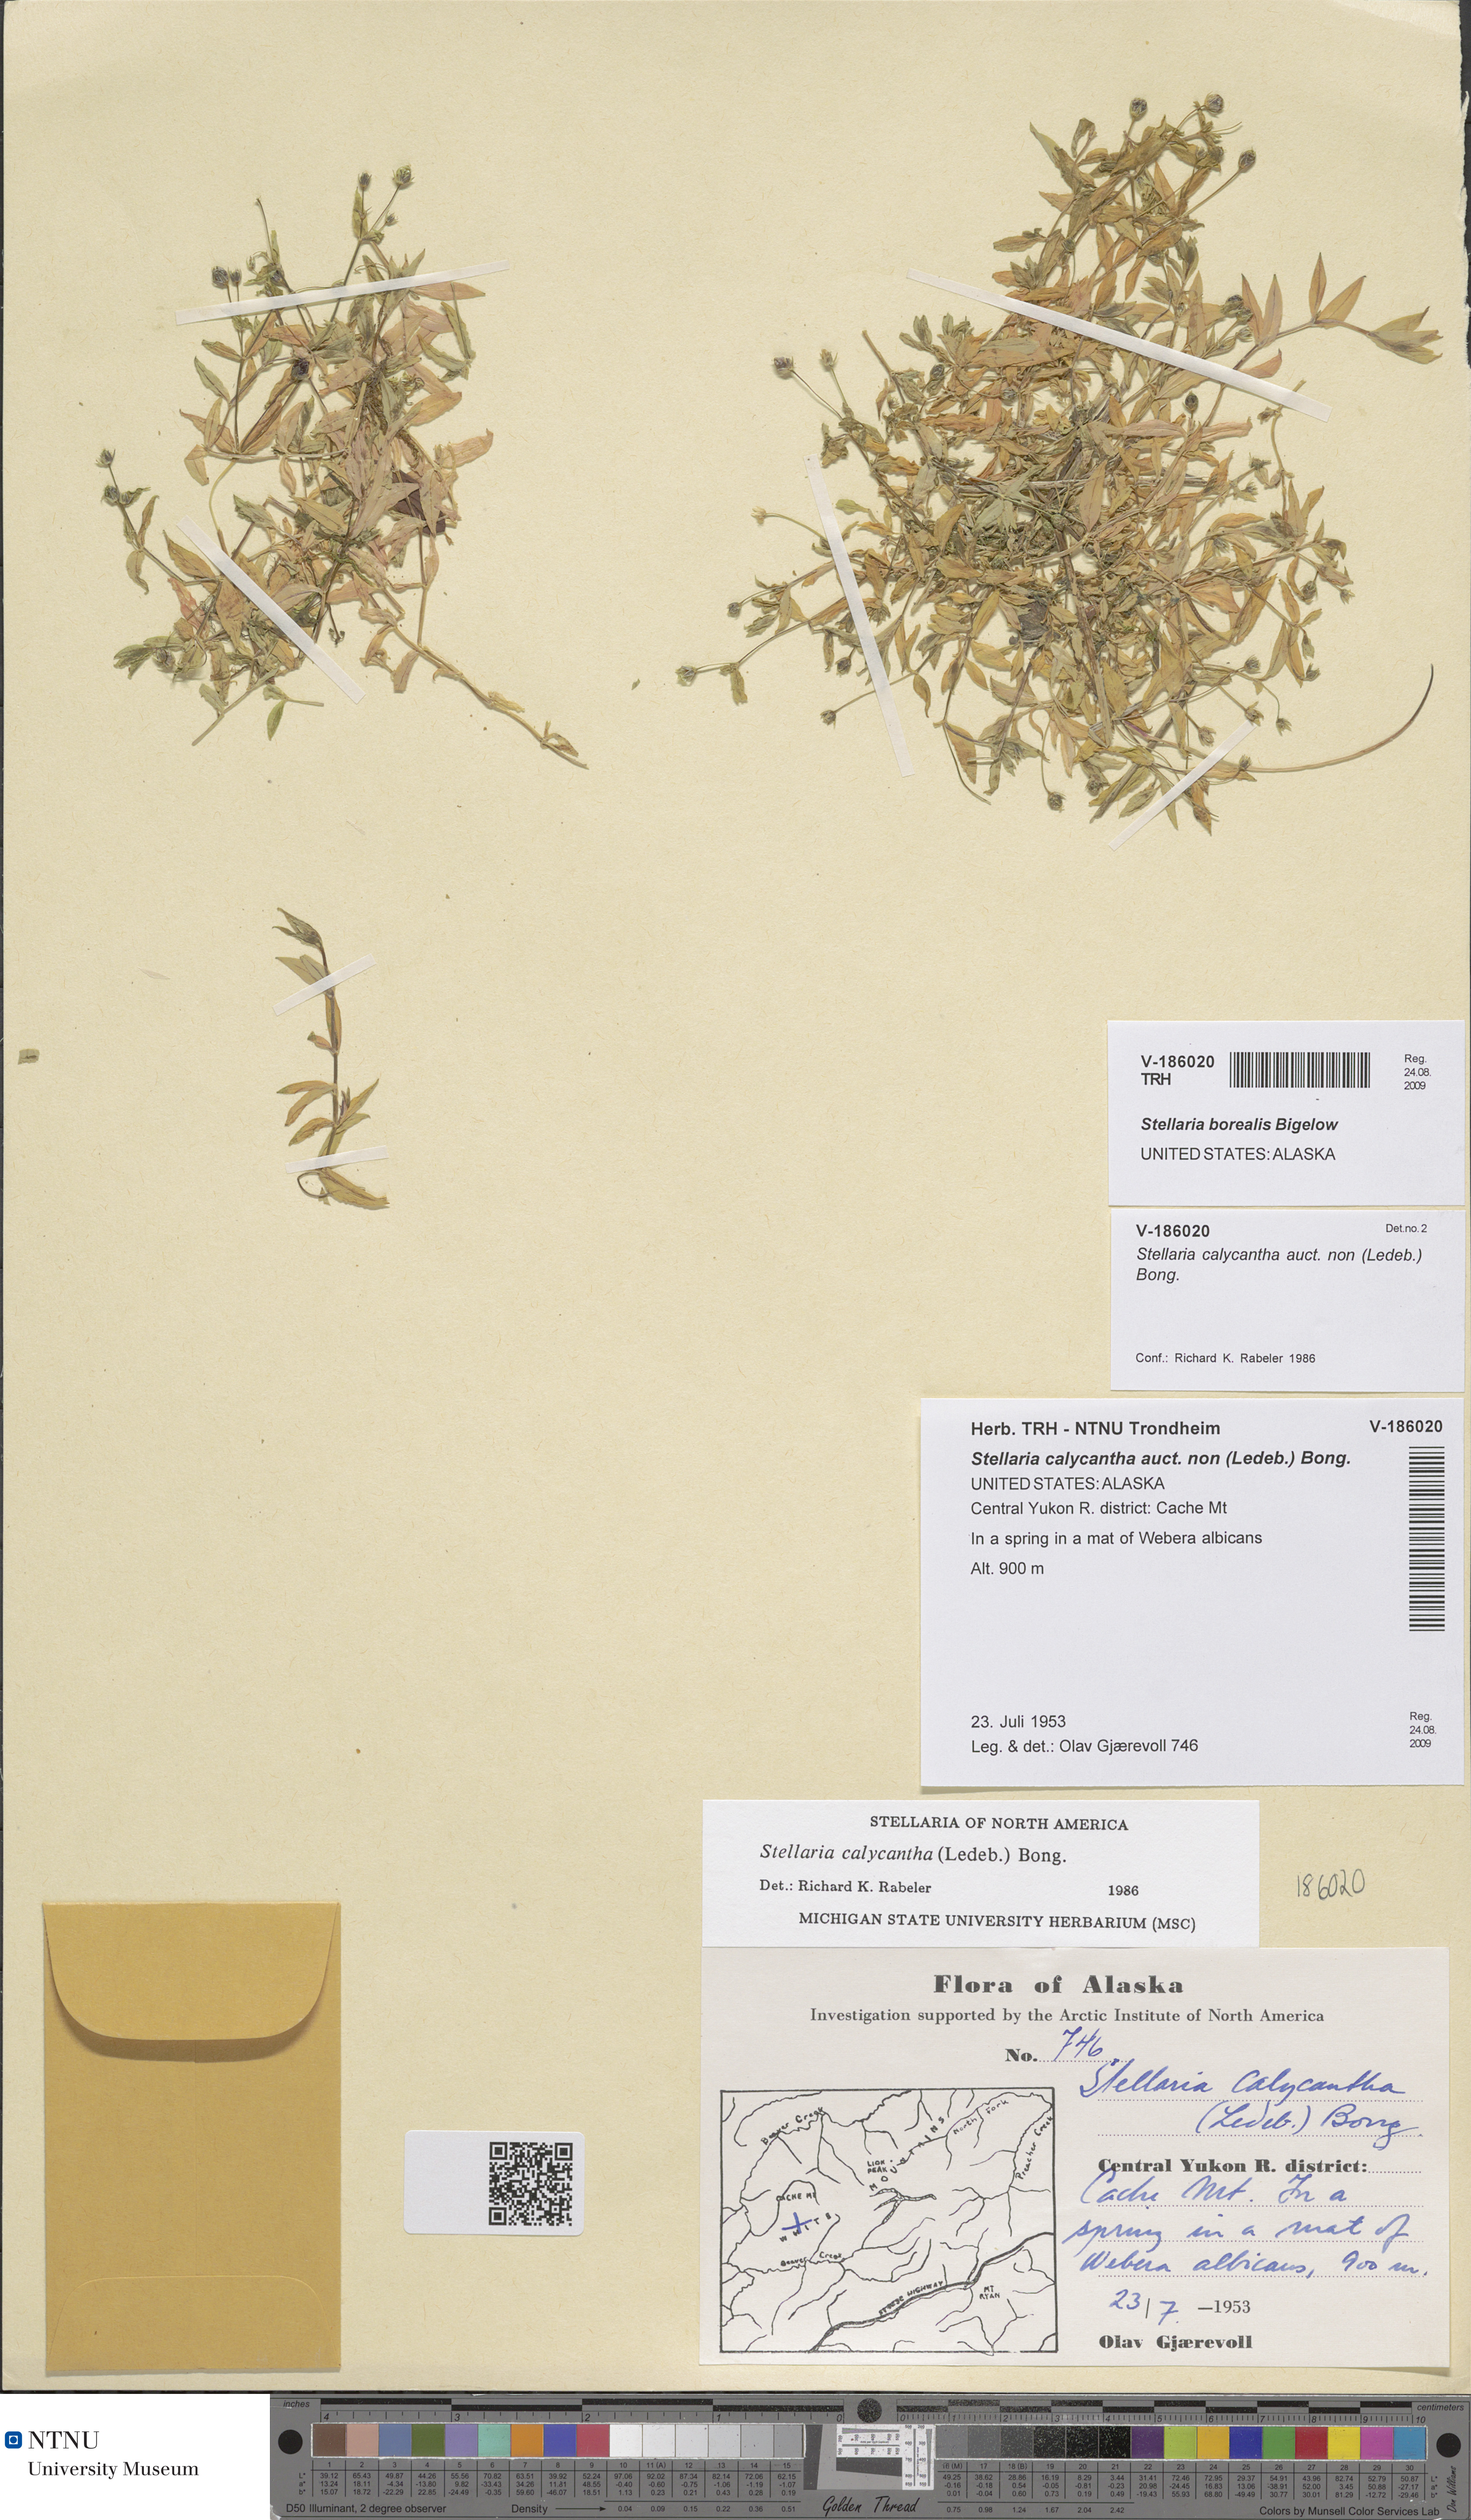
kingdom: Plantae
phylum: Tracheophyta
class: Magnoliopsida
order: Caryophyllales
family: Caryophyllaceae
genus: Stellaria
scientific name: Stellaria borealis
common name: Boreal starwort
